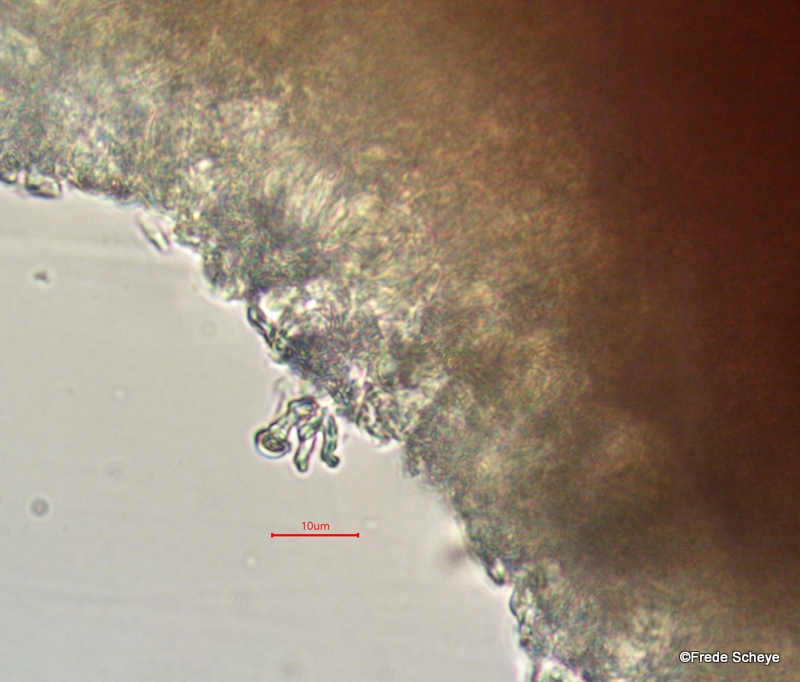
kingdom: Fungi
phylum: Basidiomycota
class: Agaricomycetes
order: Russulales
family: Peniophoraceae
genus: Peniophora
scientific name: Peniophora lycii
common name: grynet voksskind
